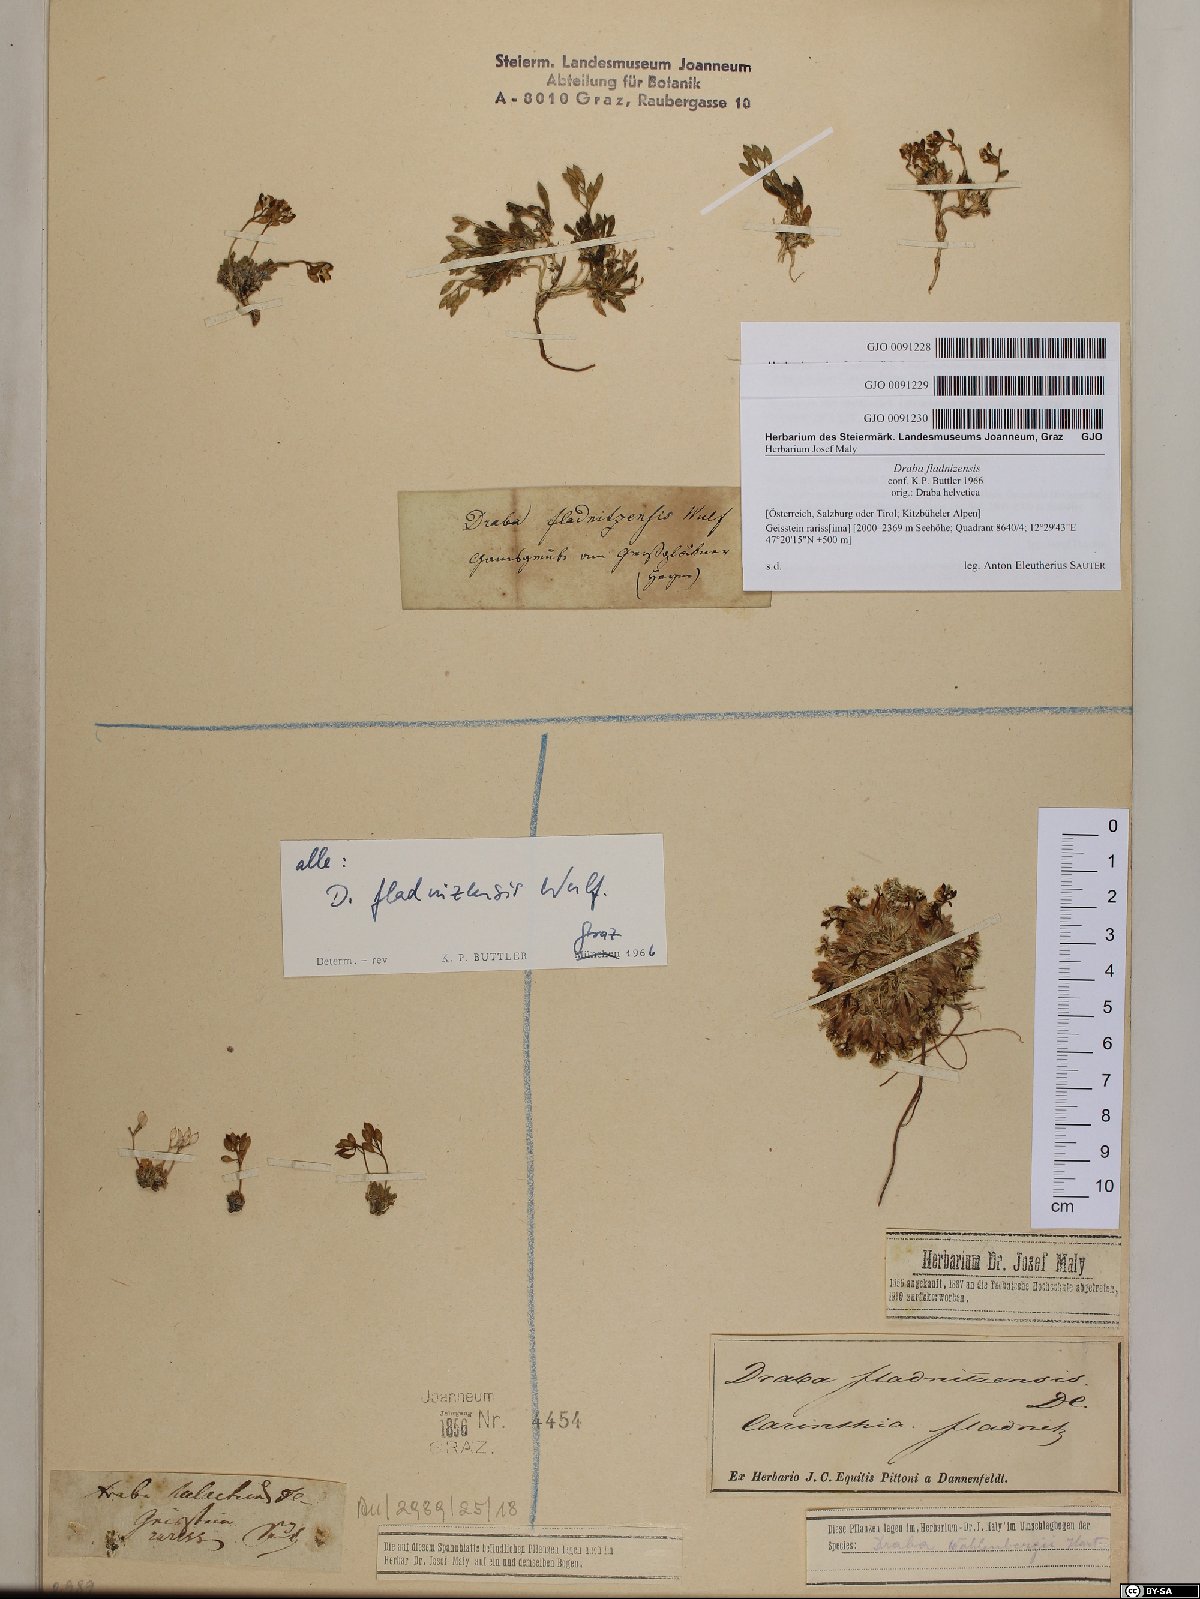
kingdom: Plantae
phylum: Tracheophyta
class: Magnoliopsida
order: Brassicales
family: Brassicaceae
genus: Draba
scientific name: Draba fladnizensis
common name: Austrian draba
